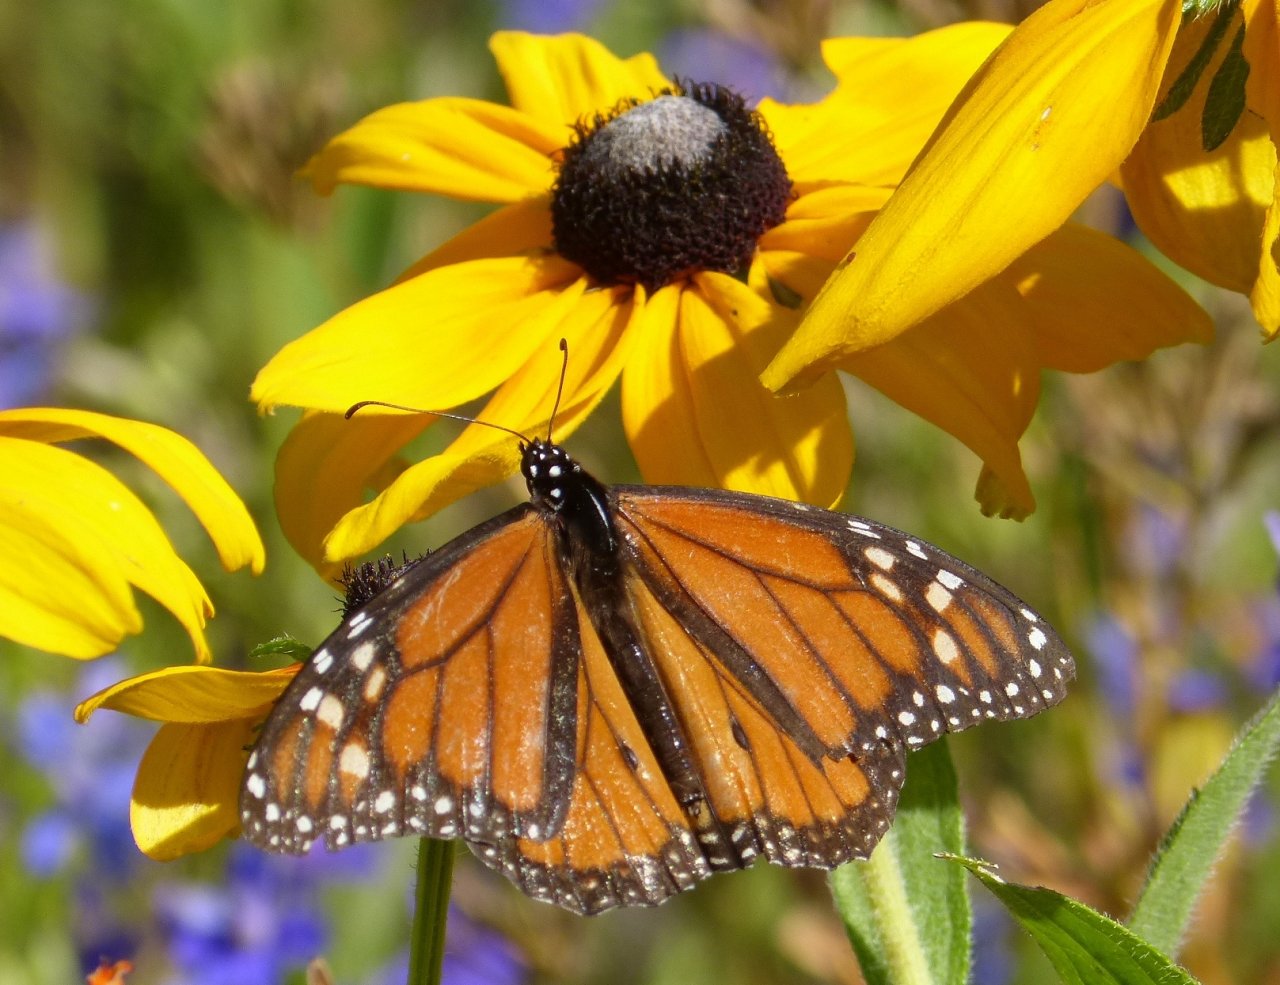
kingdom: Animalia
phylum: Arthropoda
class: Insecta
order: Lepidoptera
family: Nymphalidae
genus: Danaus
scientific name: Danaus plexippus
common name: Monarch
